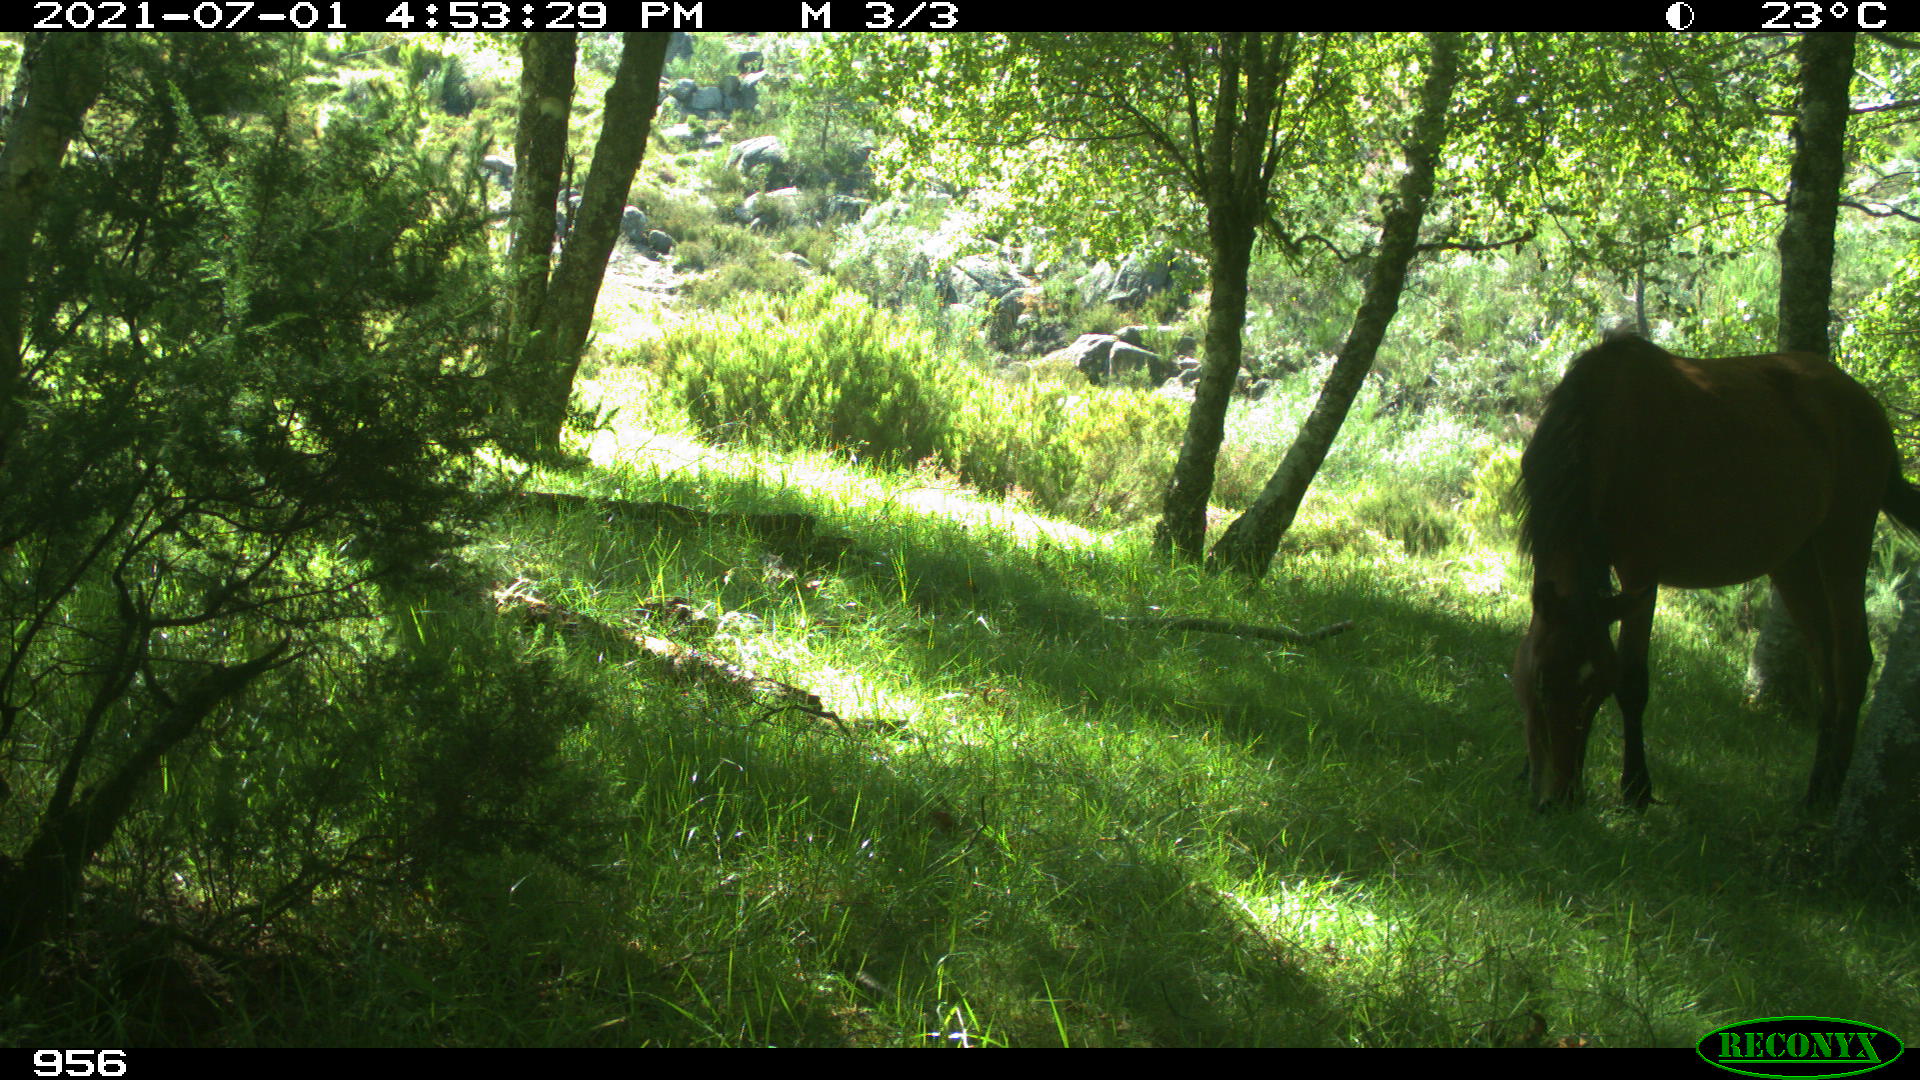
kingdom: Animalia
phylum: Chordata
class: Mammalia
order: Perissodactyla
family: Equidae
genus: Equus
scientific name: Equus caballus
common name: Horse
